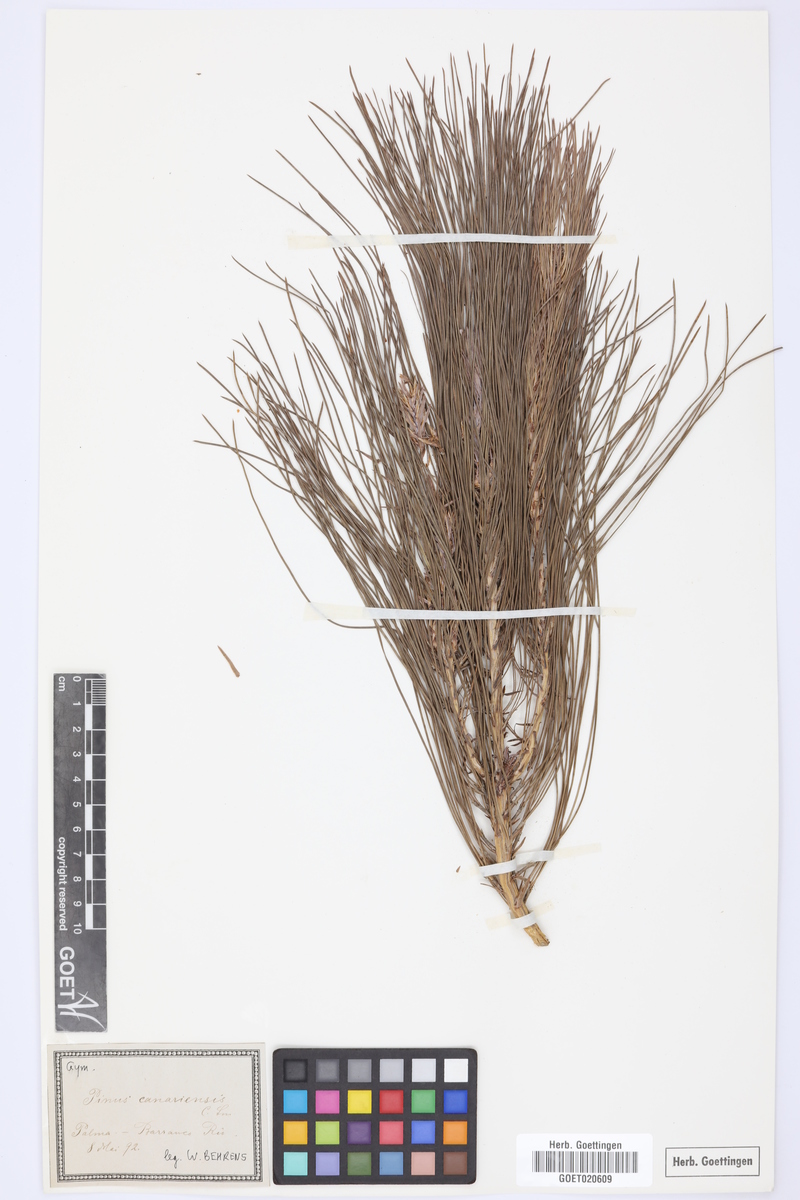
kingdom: Plantae
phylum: Tracheophyta
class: Pinopsida
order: Pinales
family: Pinaceae
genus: Pinus
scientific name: Pinus canariensis
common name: Canary islands pine
